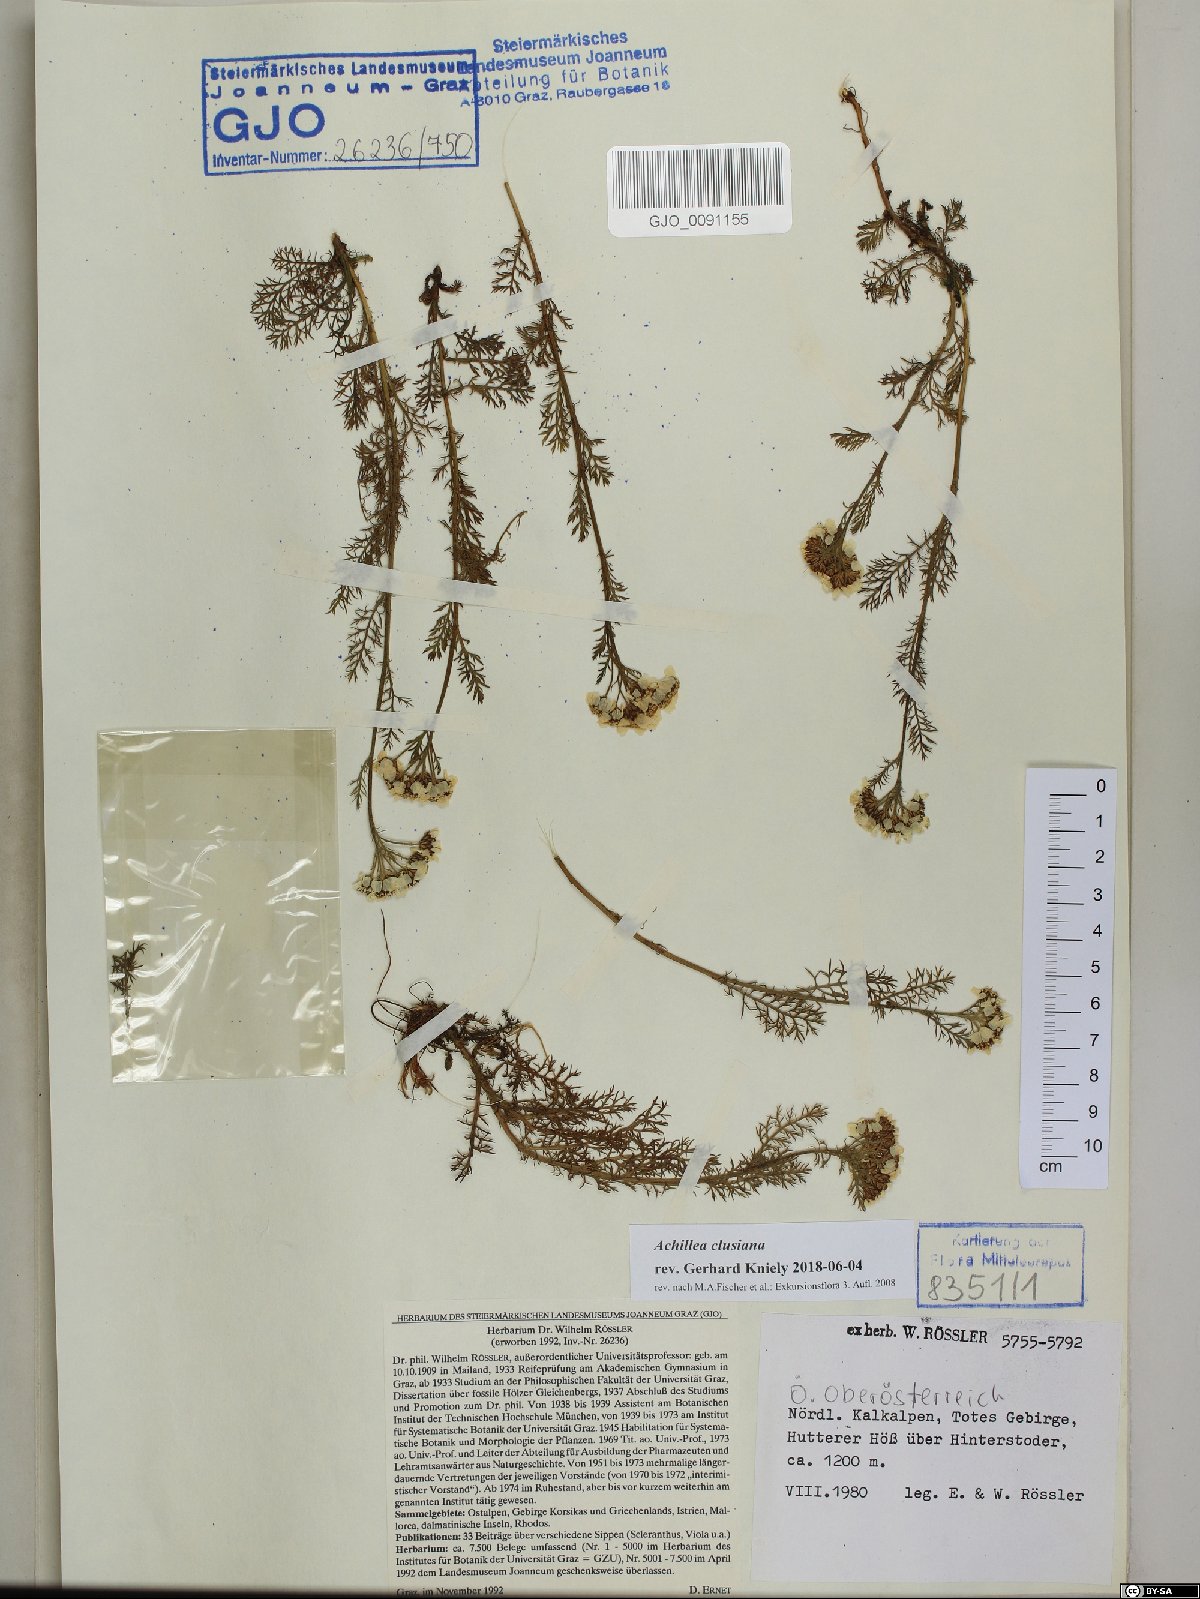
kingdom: Plantae
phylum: Tracheophyta
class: Magnoliopsida
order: Asterales
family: Asteraceae
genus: Achillea
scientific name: Achillea clusiana
